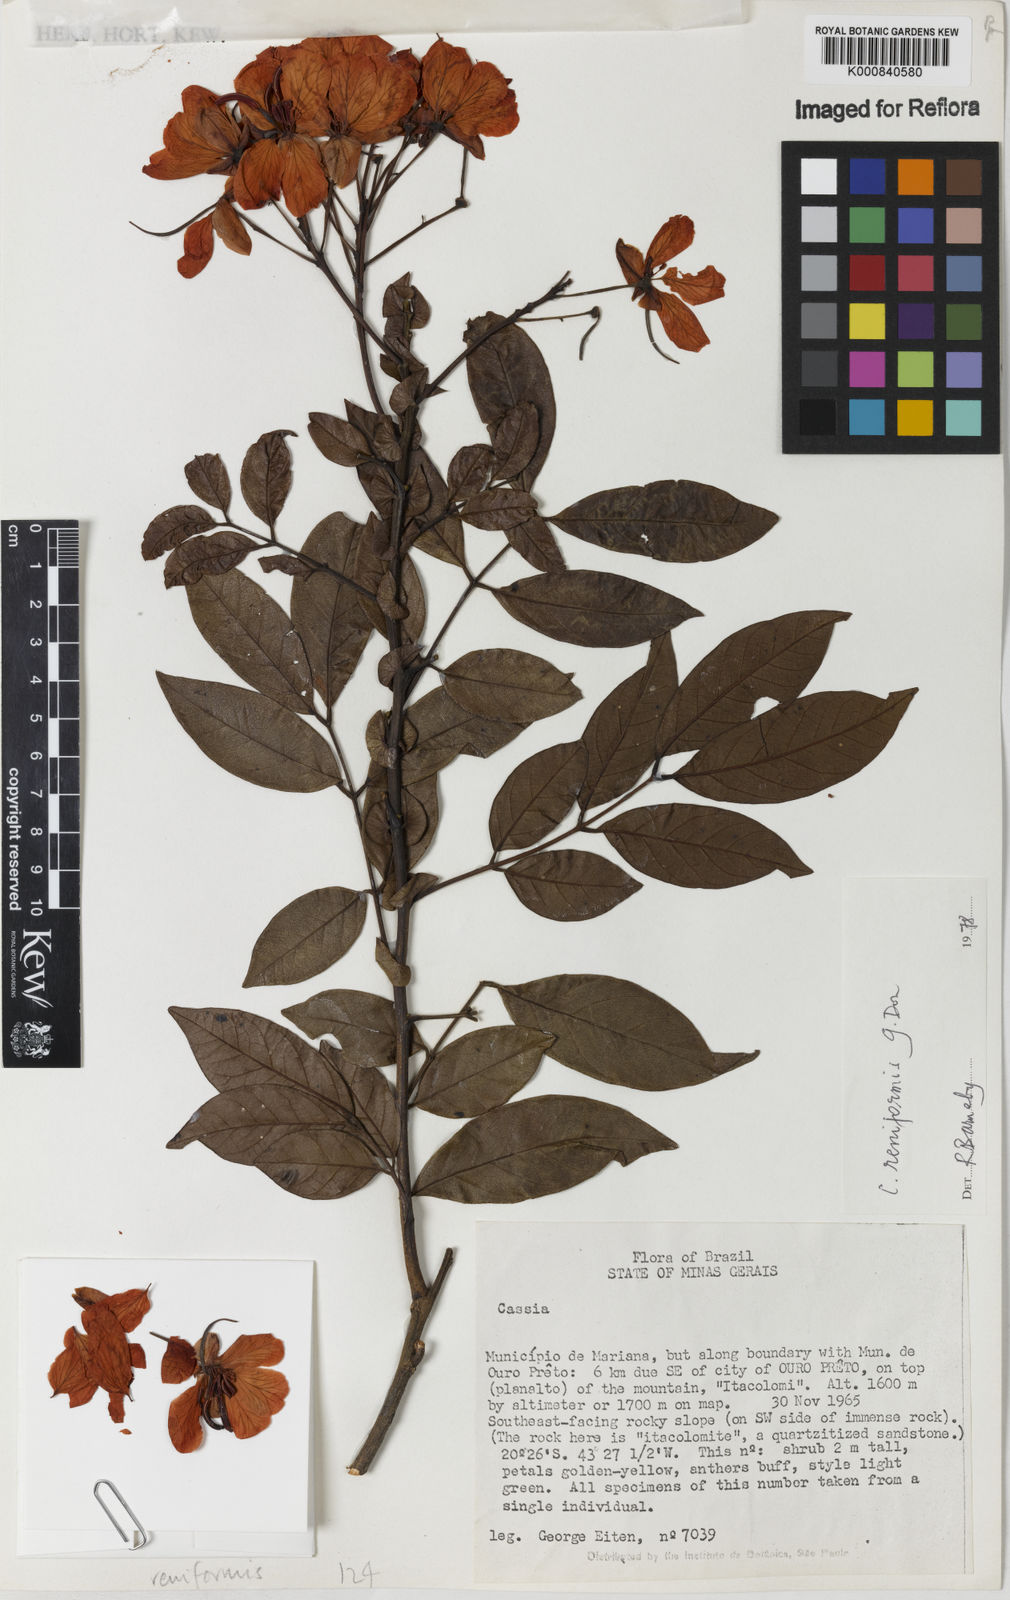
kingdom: Plantae
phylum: Tracheophyta
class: Magnoliopsida
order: Fabales
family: Fabaceae
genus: Senna
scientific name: Senna reniformis
